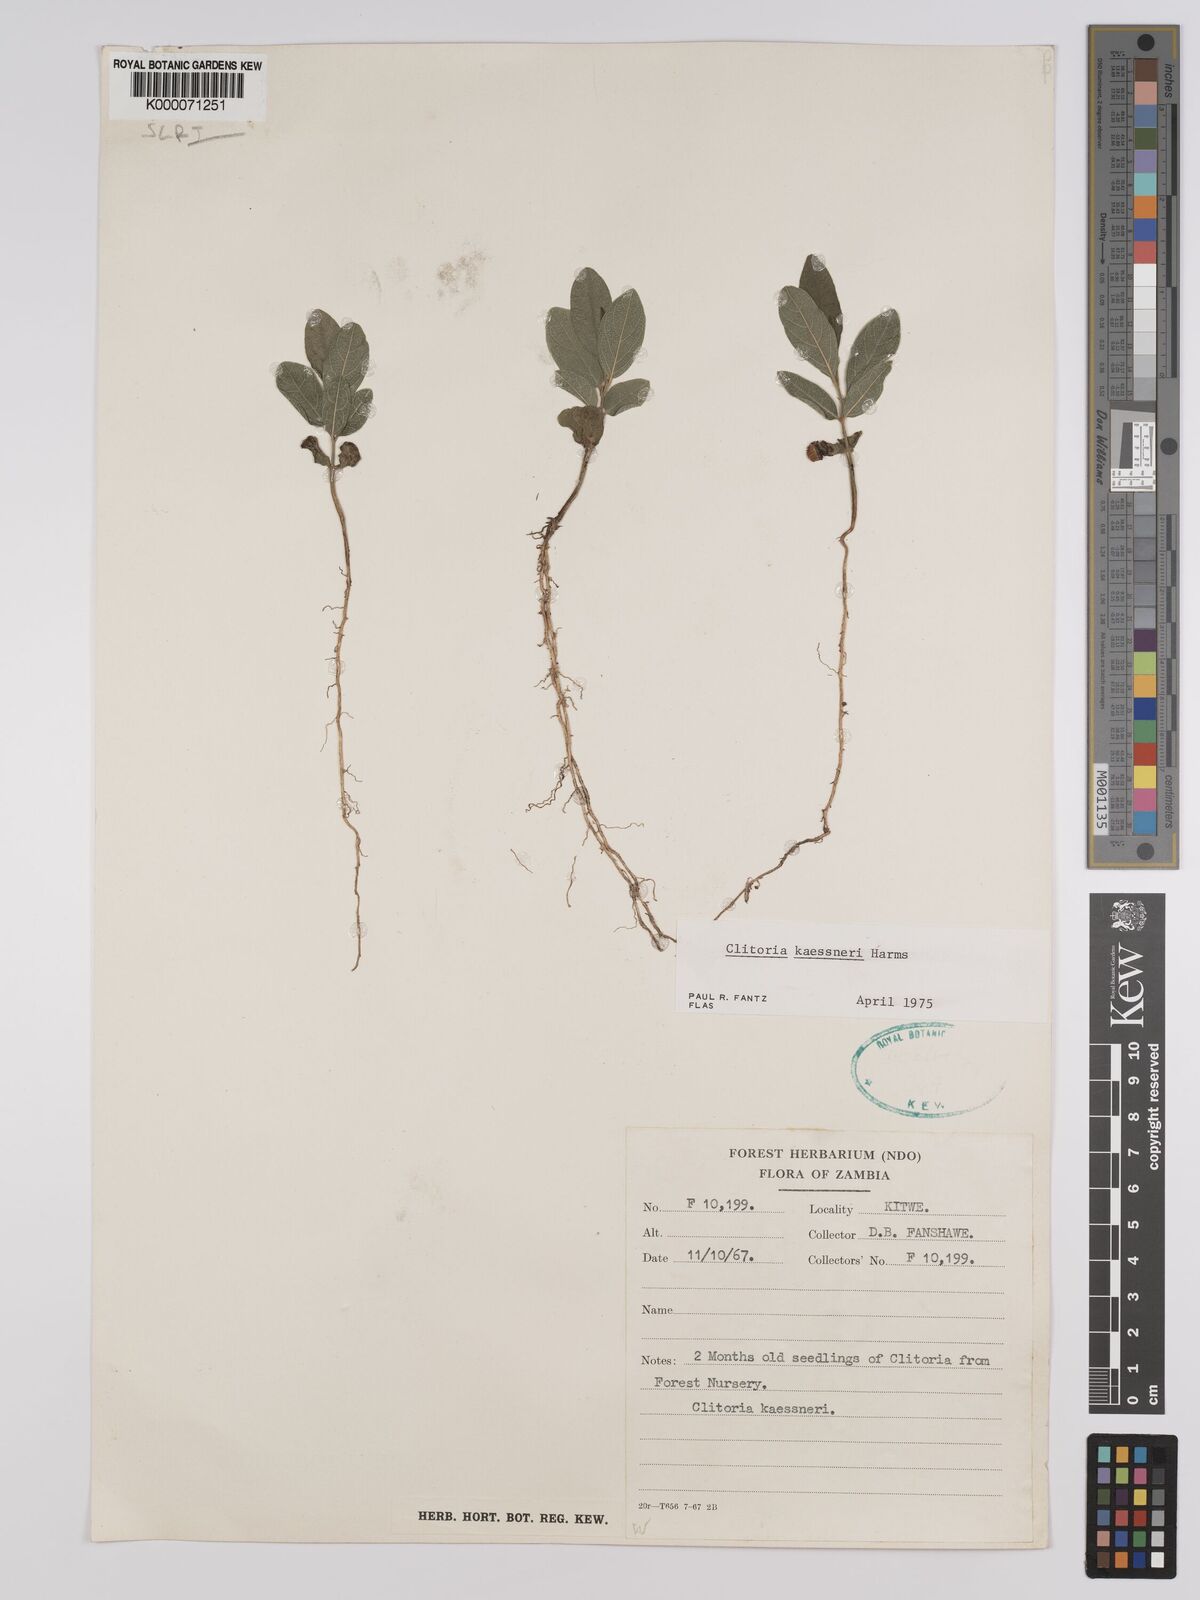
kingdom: Plantae
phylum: Tracheophyta
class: Magnoliopsida
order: Fabales
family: Fabaceae
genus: Clitoria
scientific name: Clitoria kaessneri
